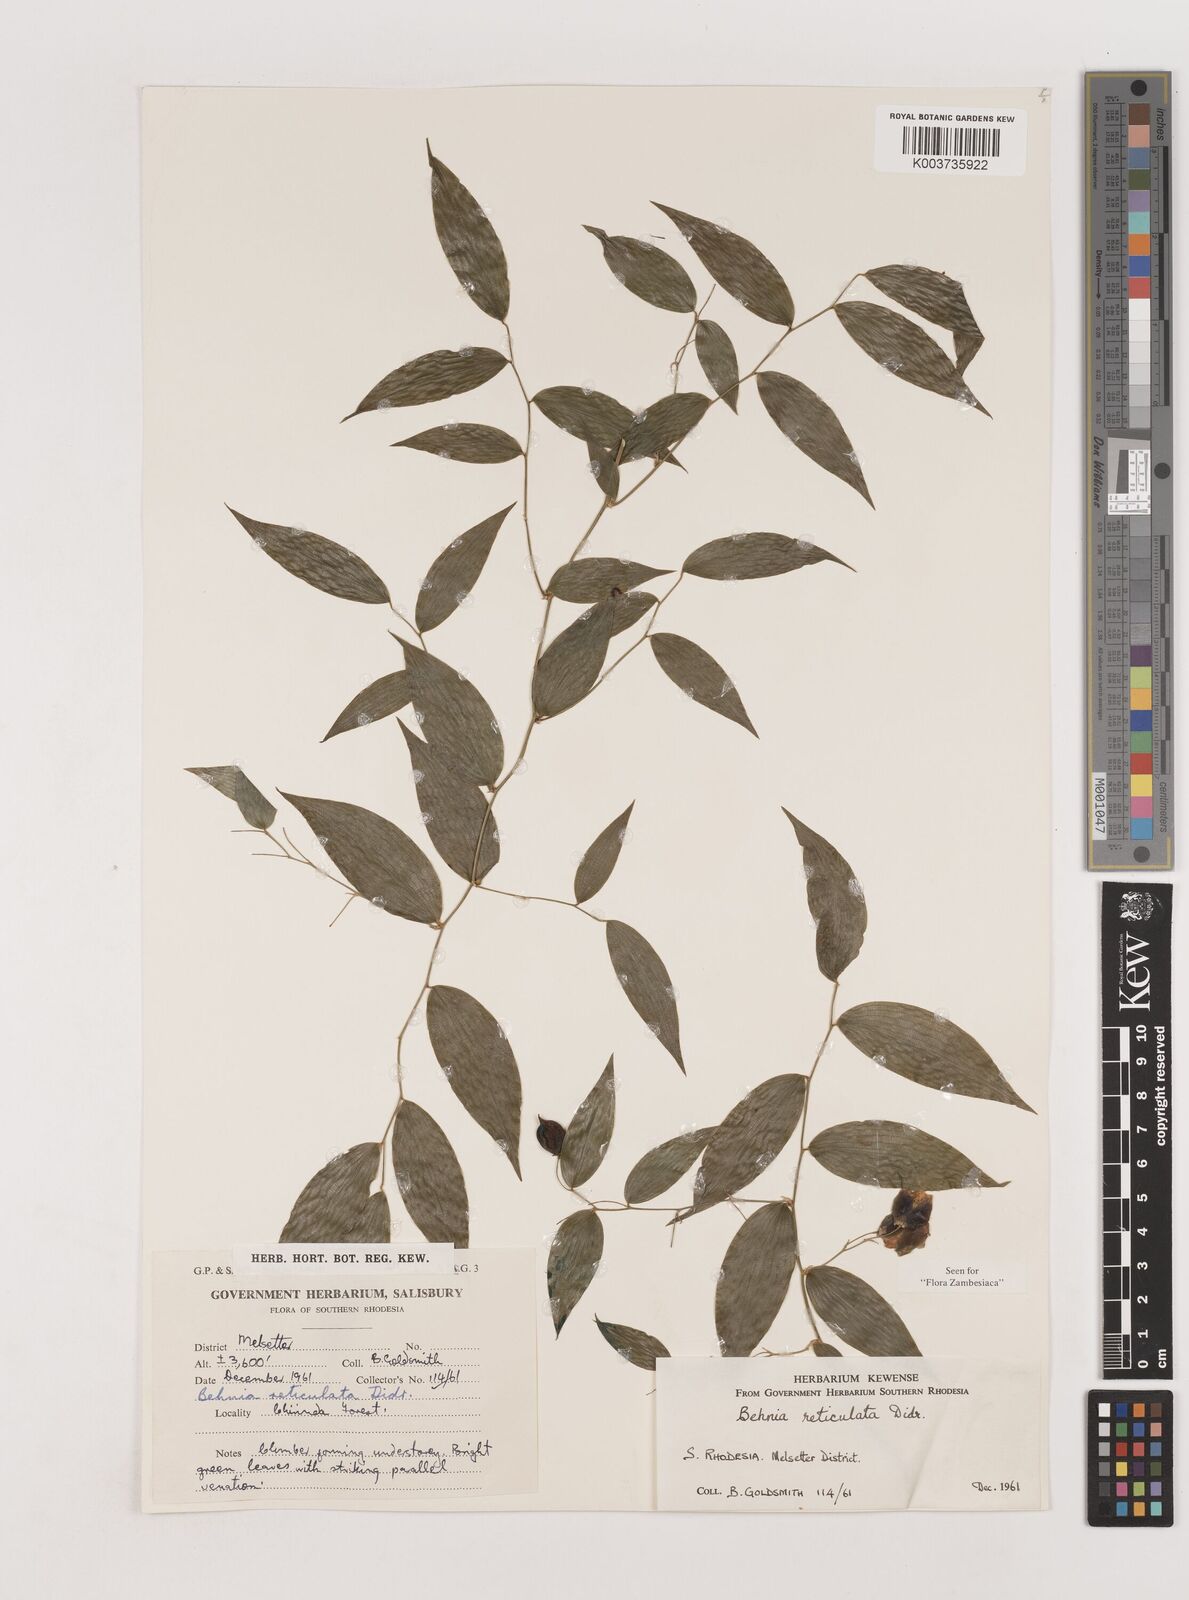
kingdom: Plantae
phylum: Tracheophyta
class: Liliopsida
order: Asparagales
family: Asparagaceae
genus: Behnia
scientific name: Behnia reticulata
